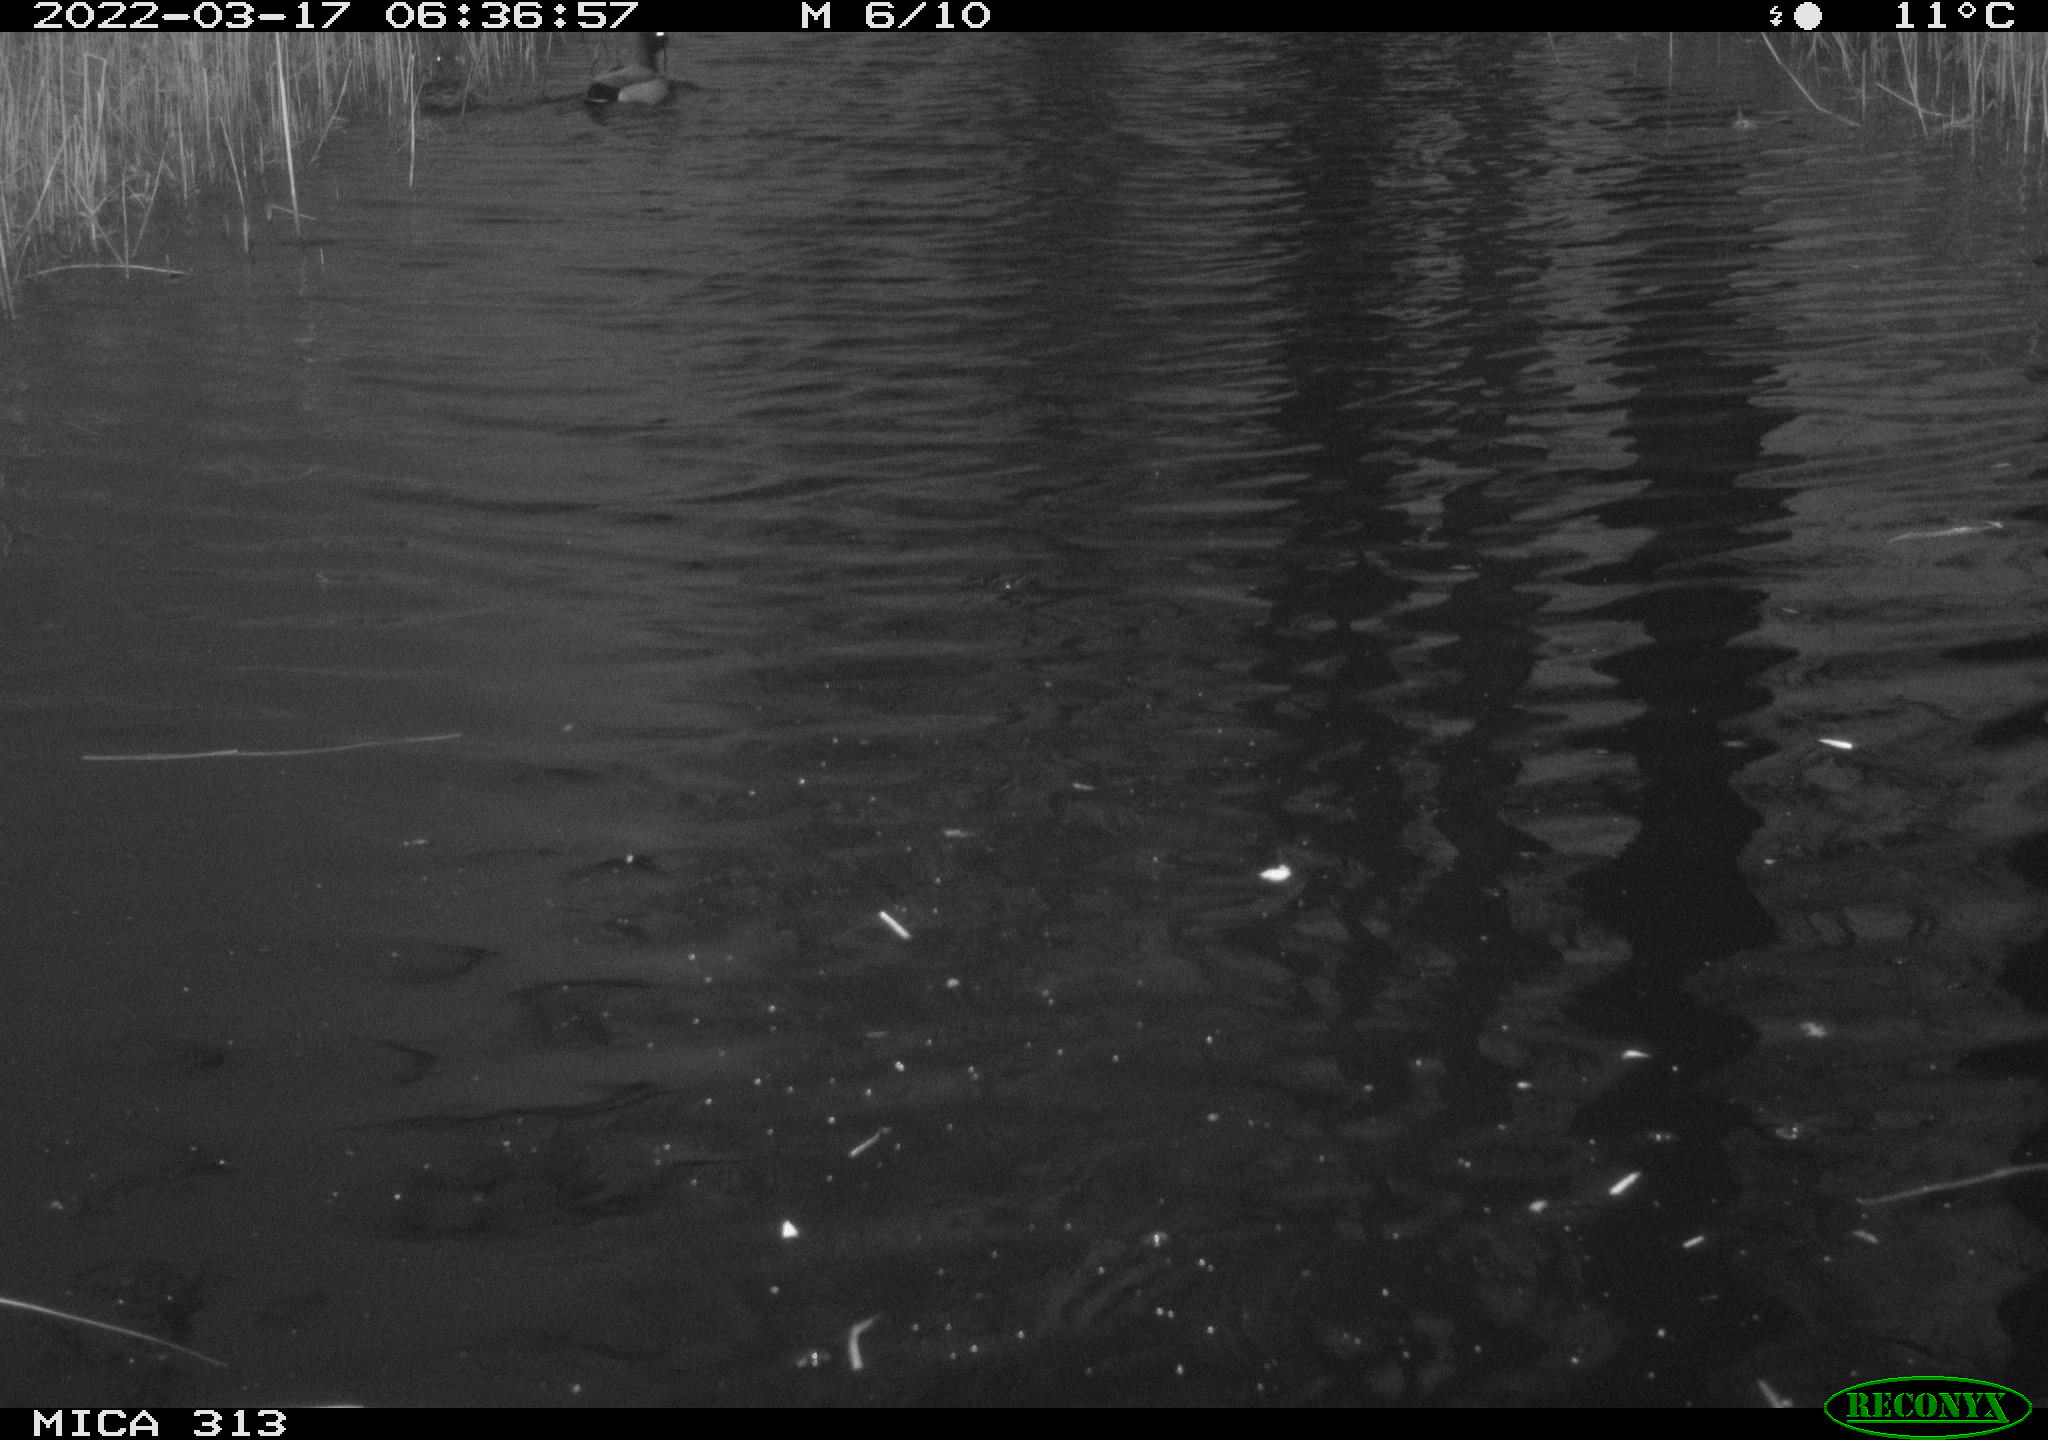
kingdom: Animalia
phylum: Chordata
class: Aves
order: Anseriformes
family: Anatidae
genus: Anas
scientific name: Anas platyrhynchos
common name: Mallard
